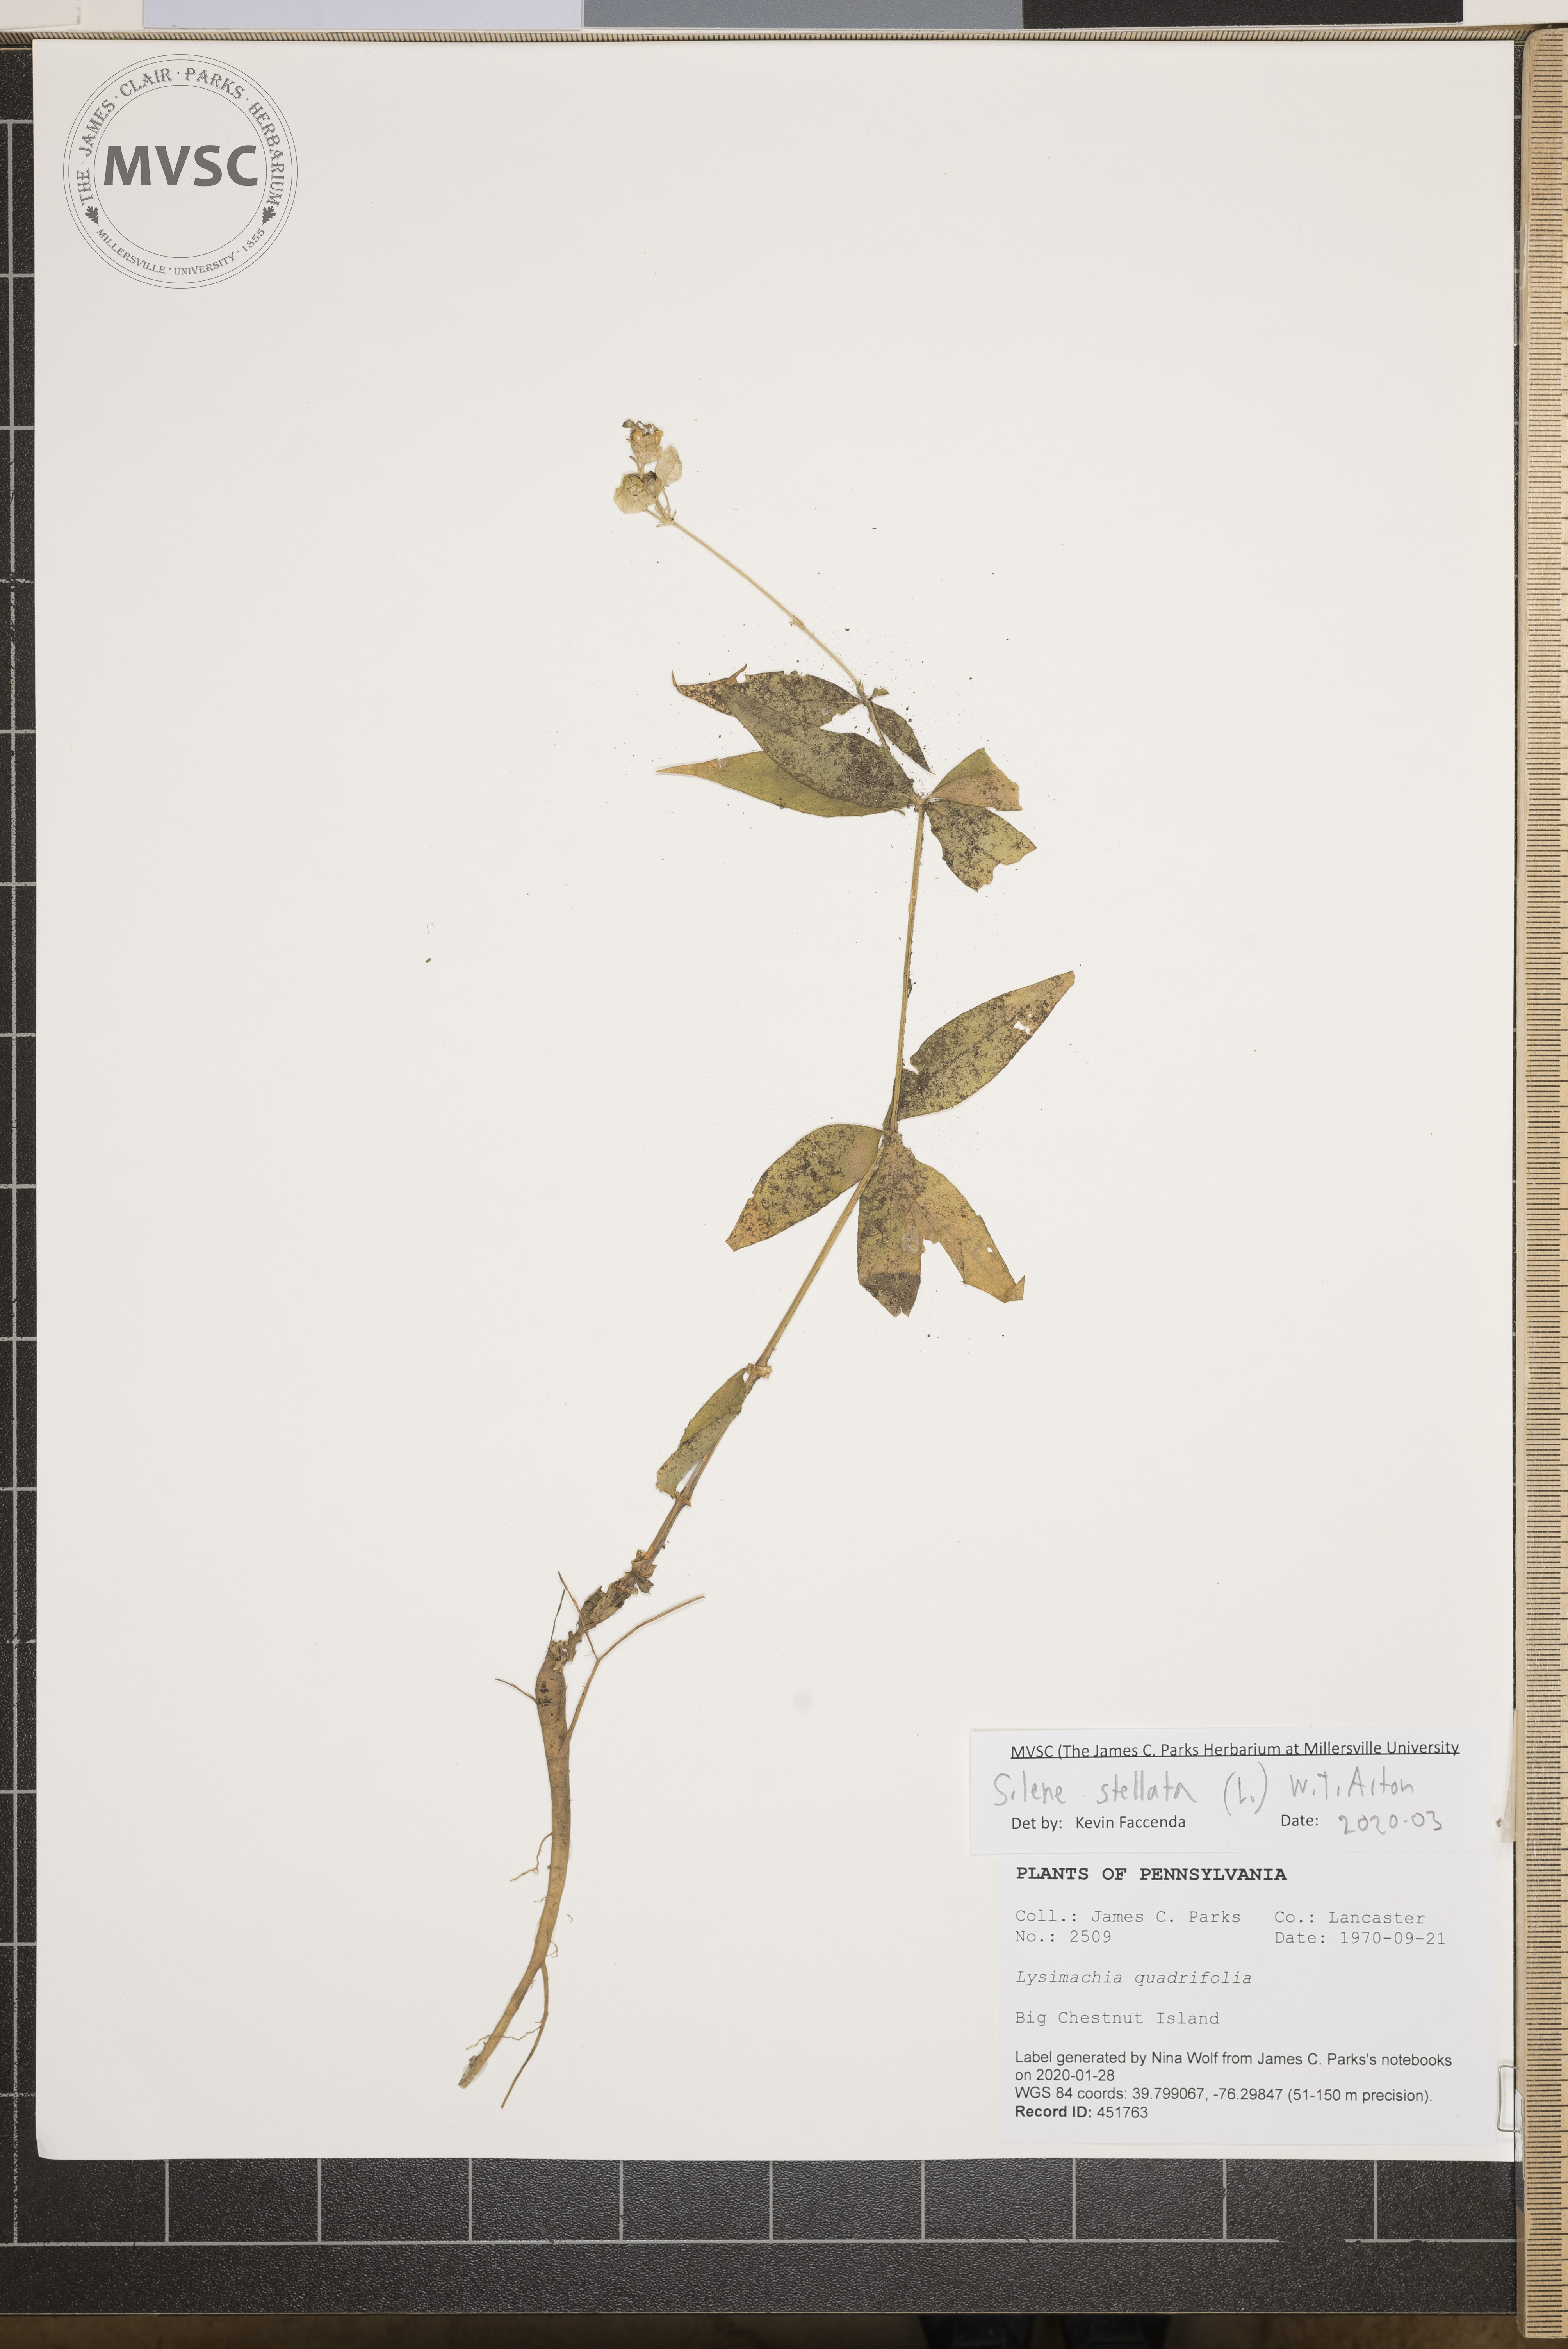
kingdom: Plantae
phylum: Tracheophyta
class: Magnoliopsida
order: Caryophyllales
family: Caryophyllaceae
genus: Silene
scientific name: Silene stellata
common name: Starry campion
